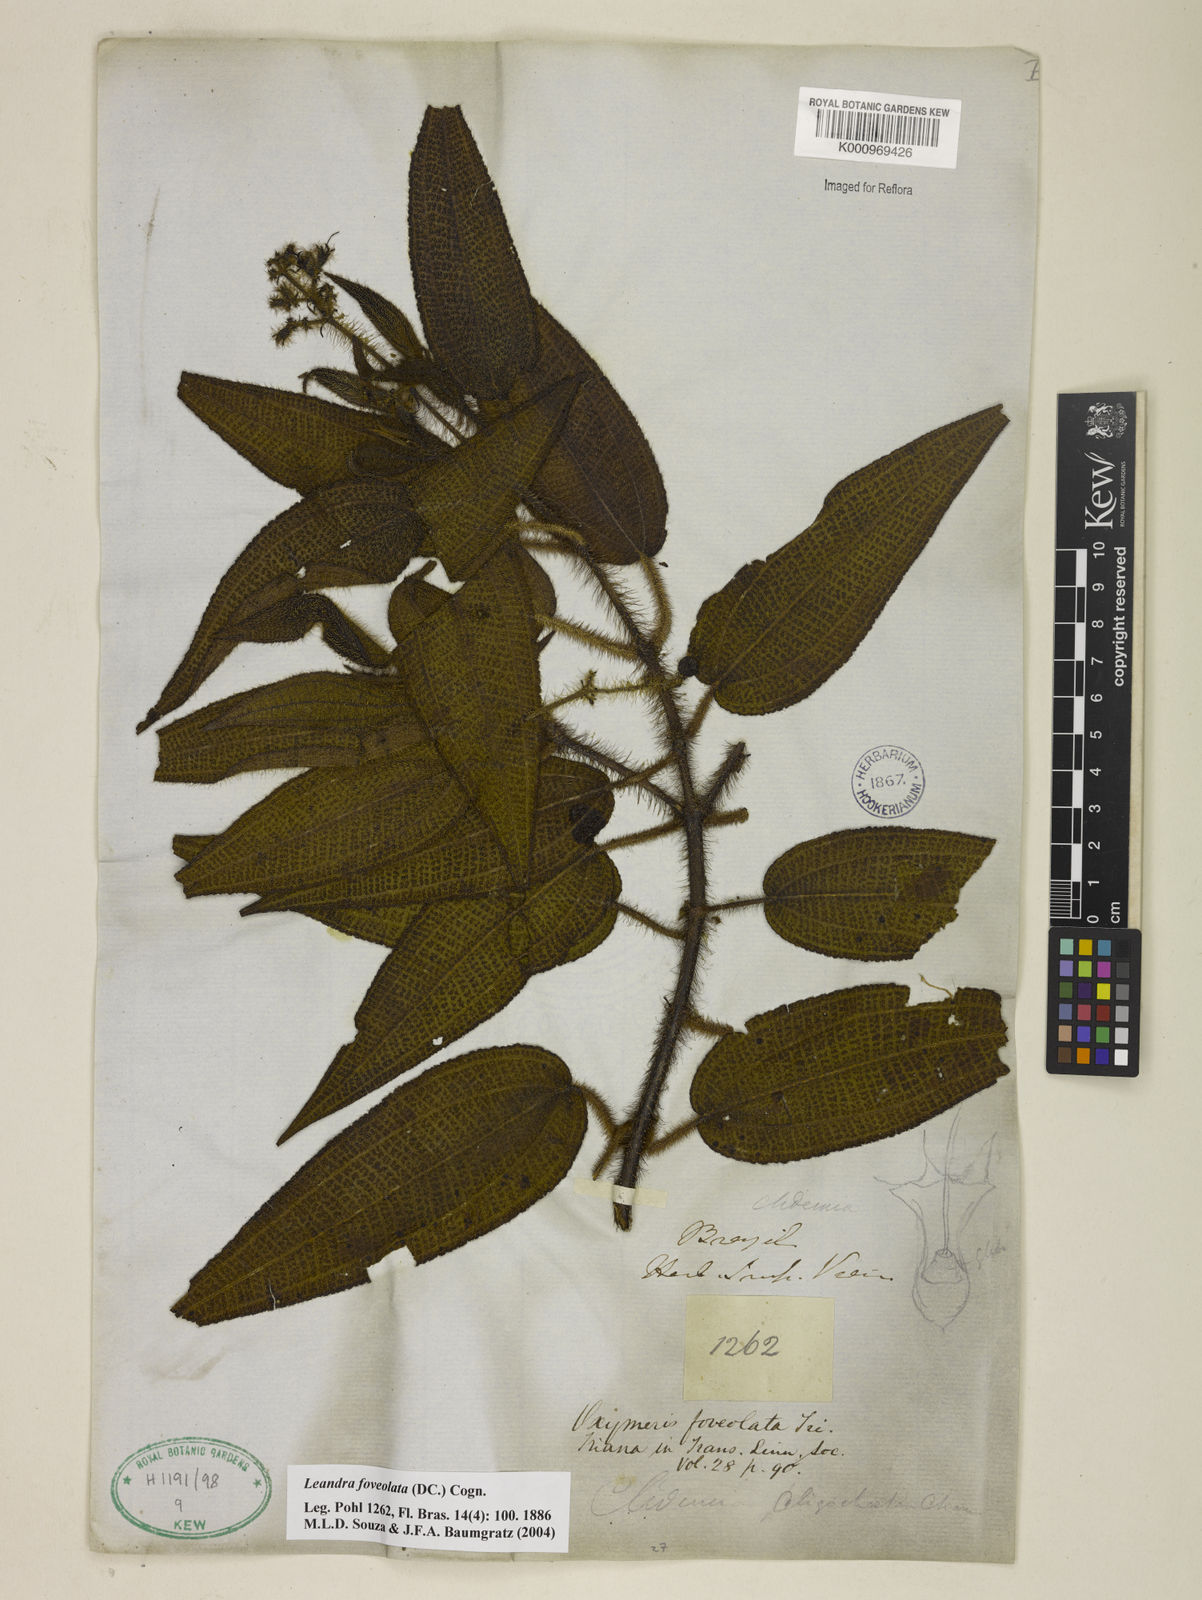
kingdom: Plantae
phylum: Tracheophyta
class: Magnoliopsida
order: Myrtales
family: Melastomataceae
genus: Miconia
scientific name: Miconia leafoveolata
